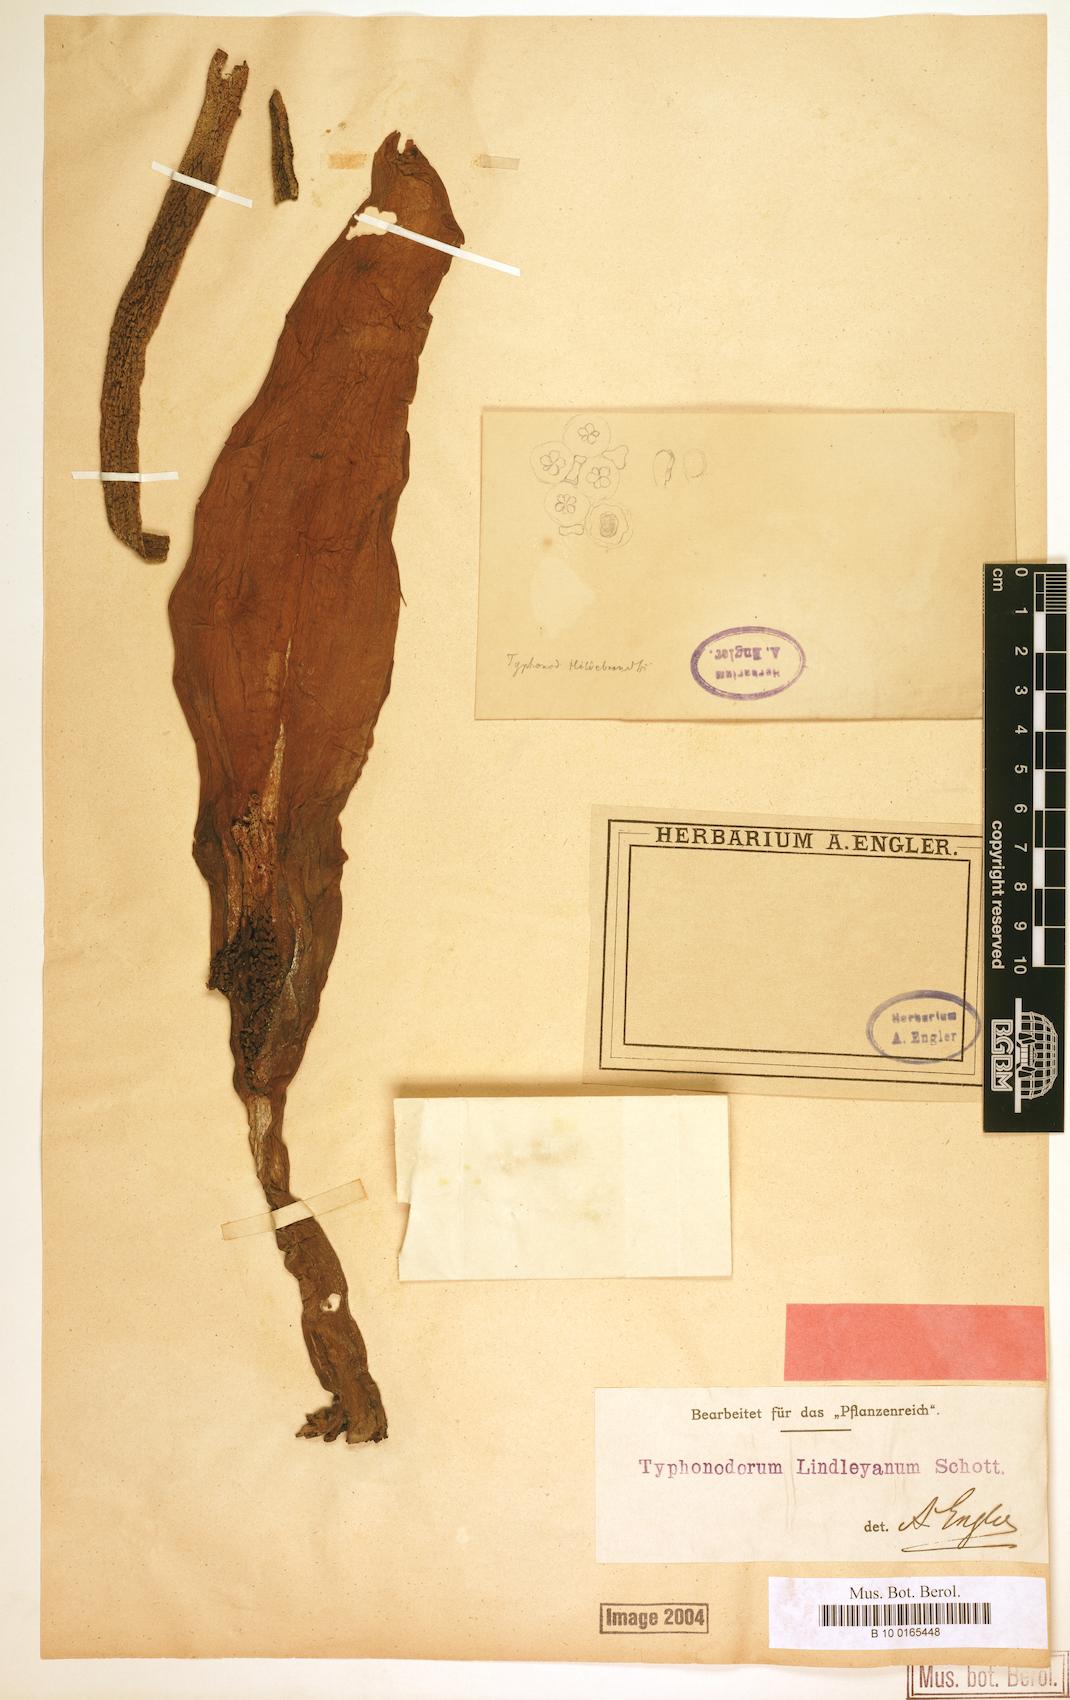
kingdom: Plantae
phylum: Tracheophyta
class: Liliopsida
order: Alismatales
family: Araceae
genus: Typhonodorum
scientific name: Typhonodorum lindleyanum
